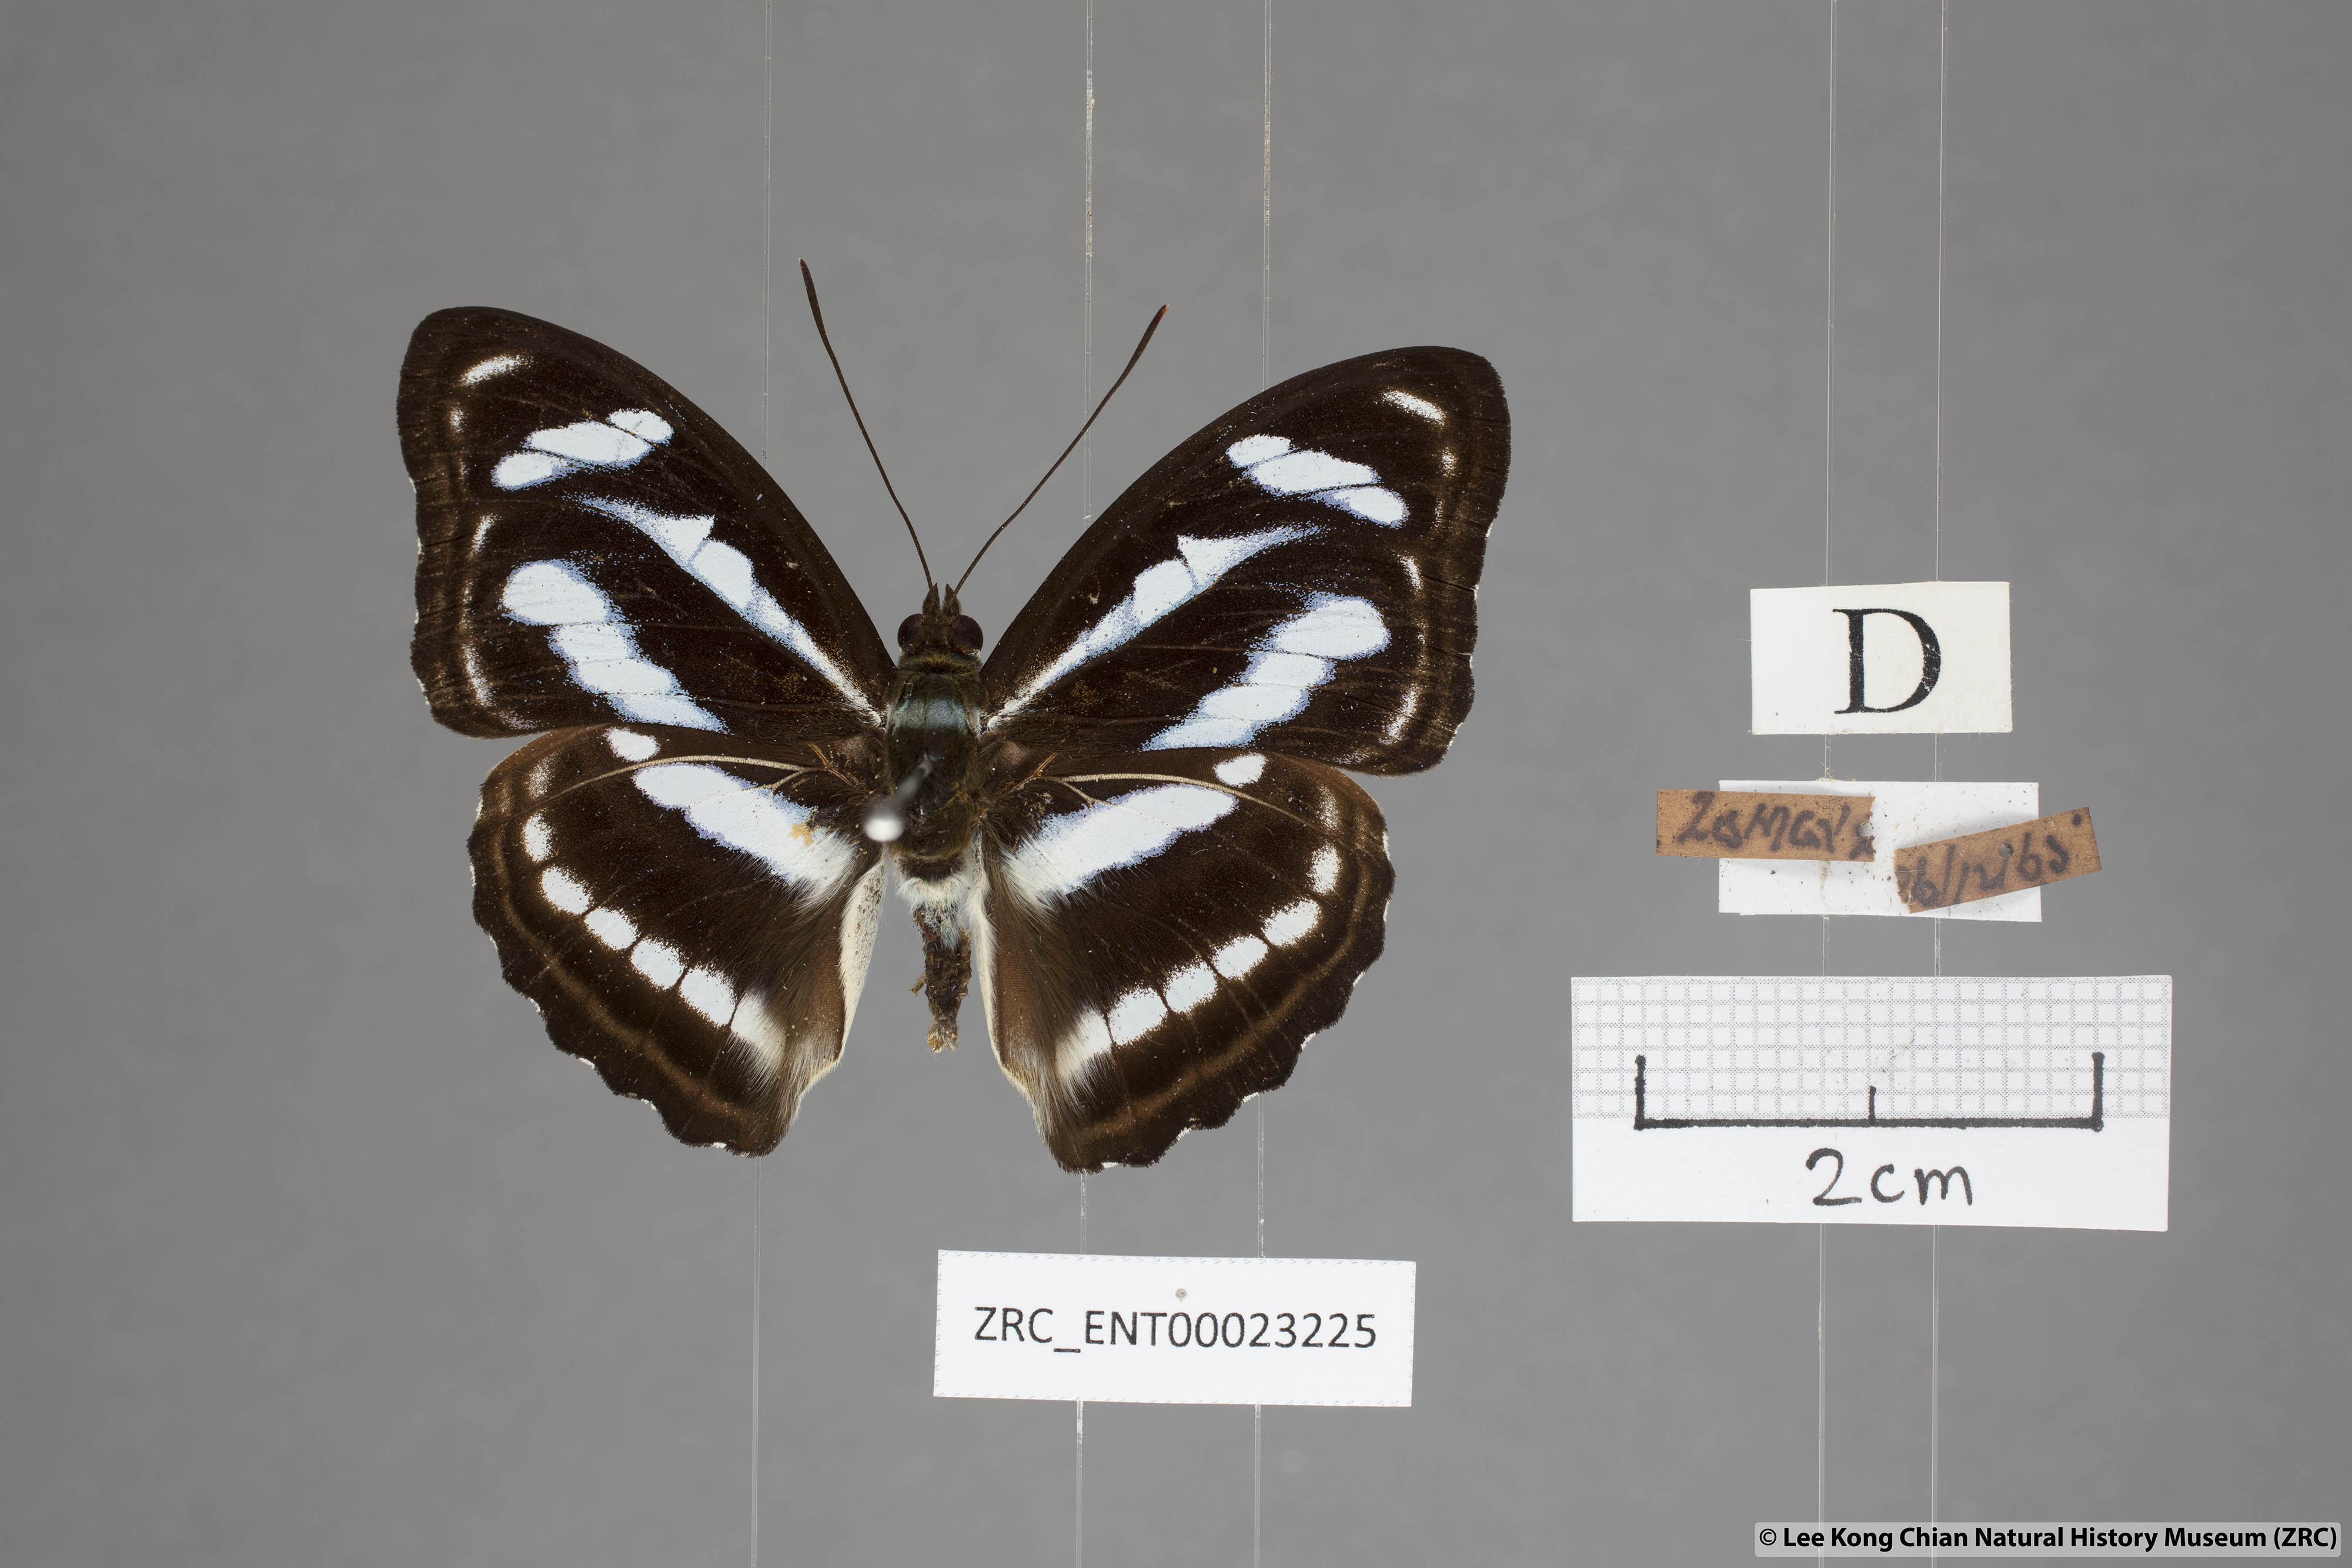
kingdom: Animalia
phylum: Arthropoda
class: Insecta
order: Lepidoptera
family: Nymphalidae
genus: Parathyma
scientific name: Parathyma nefte
